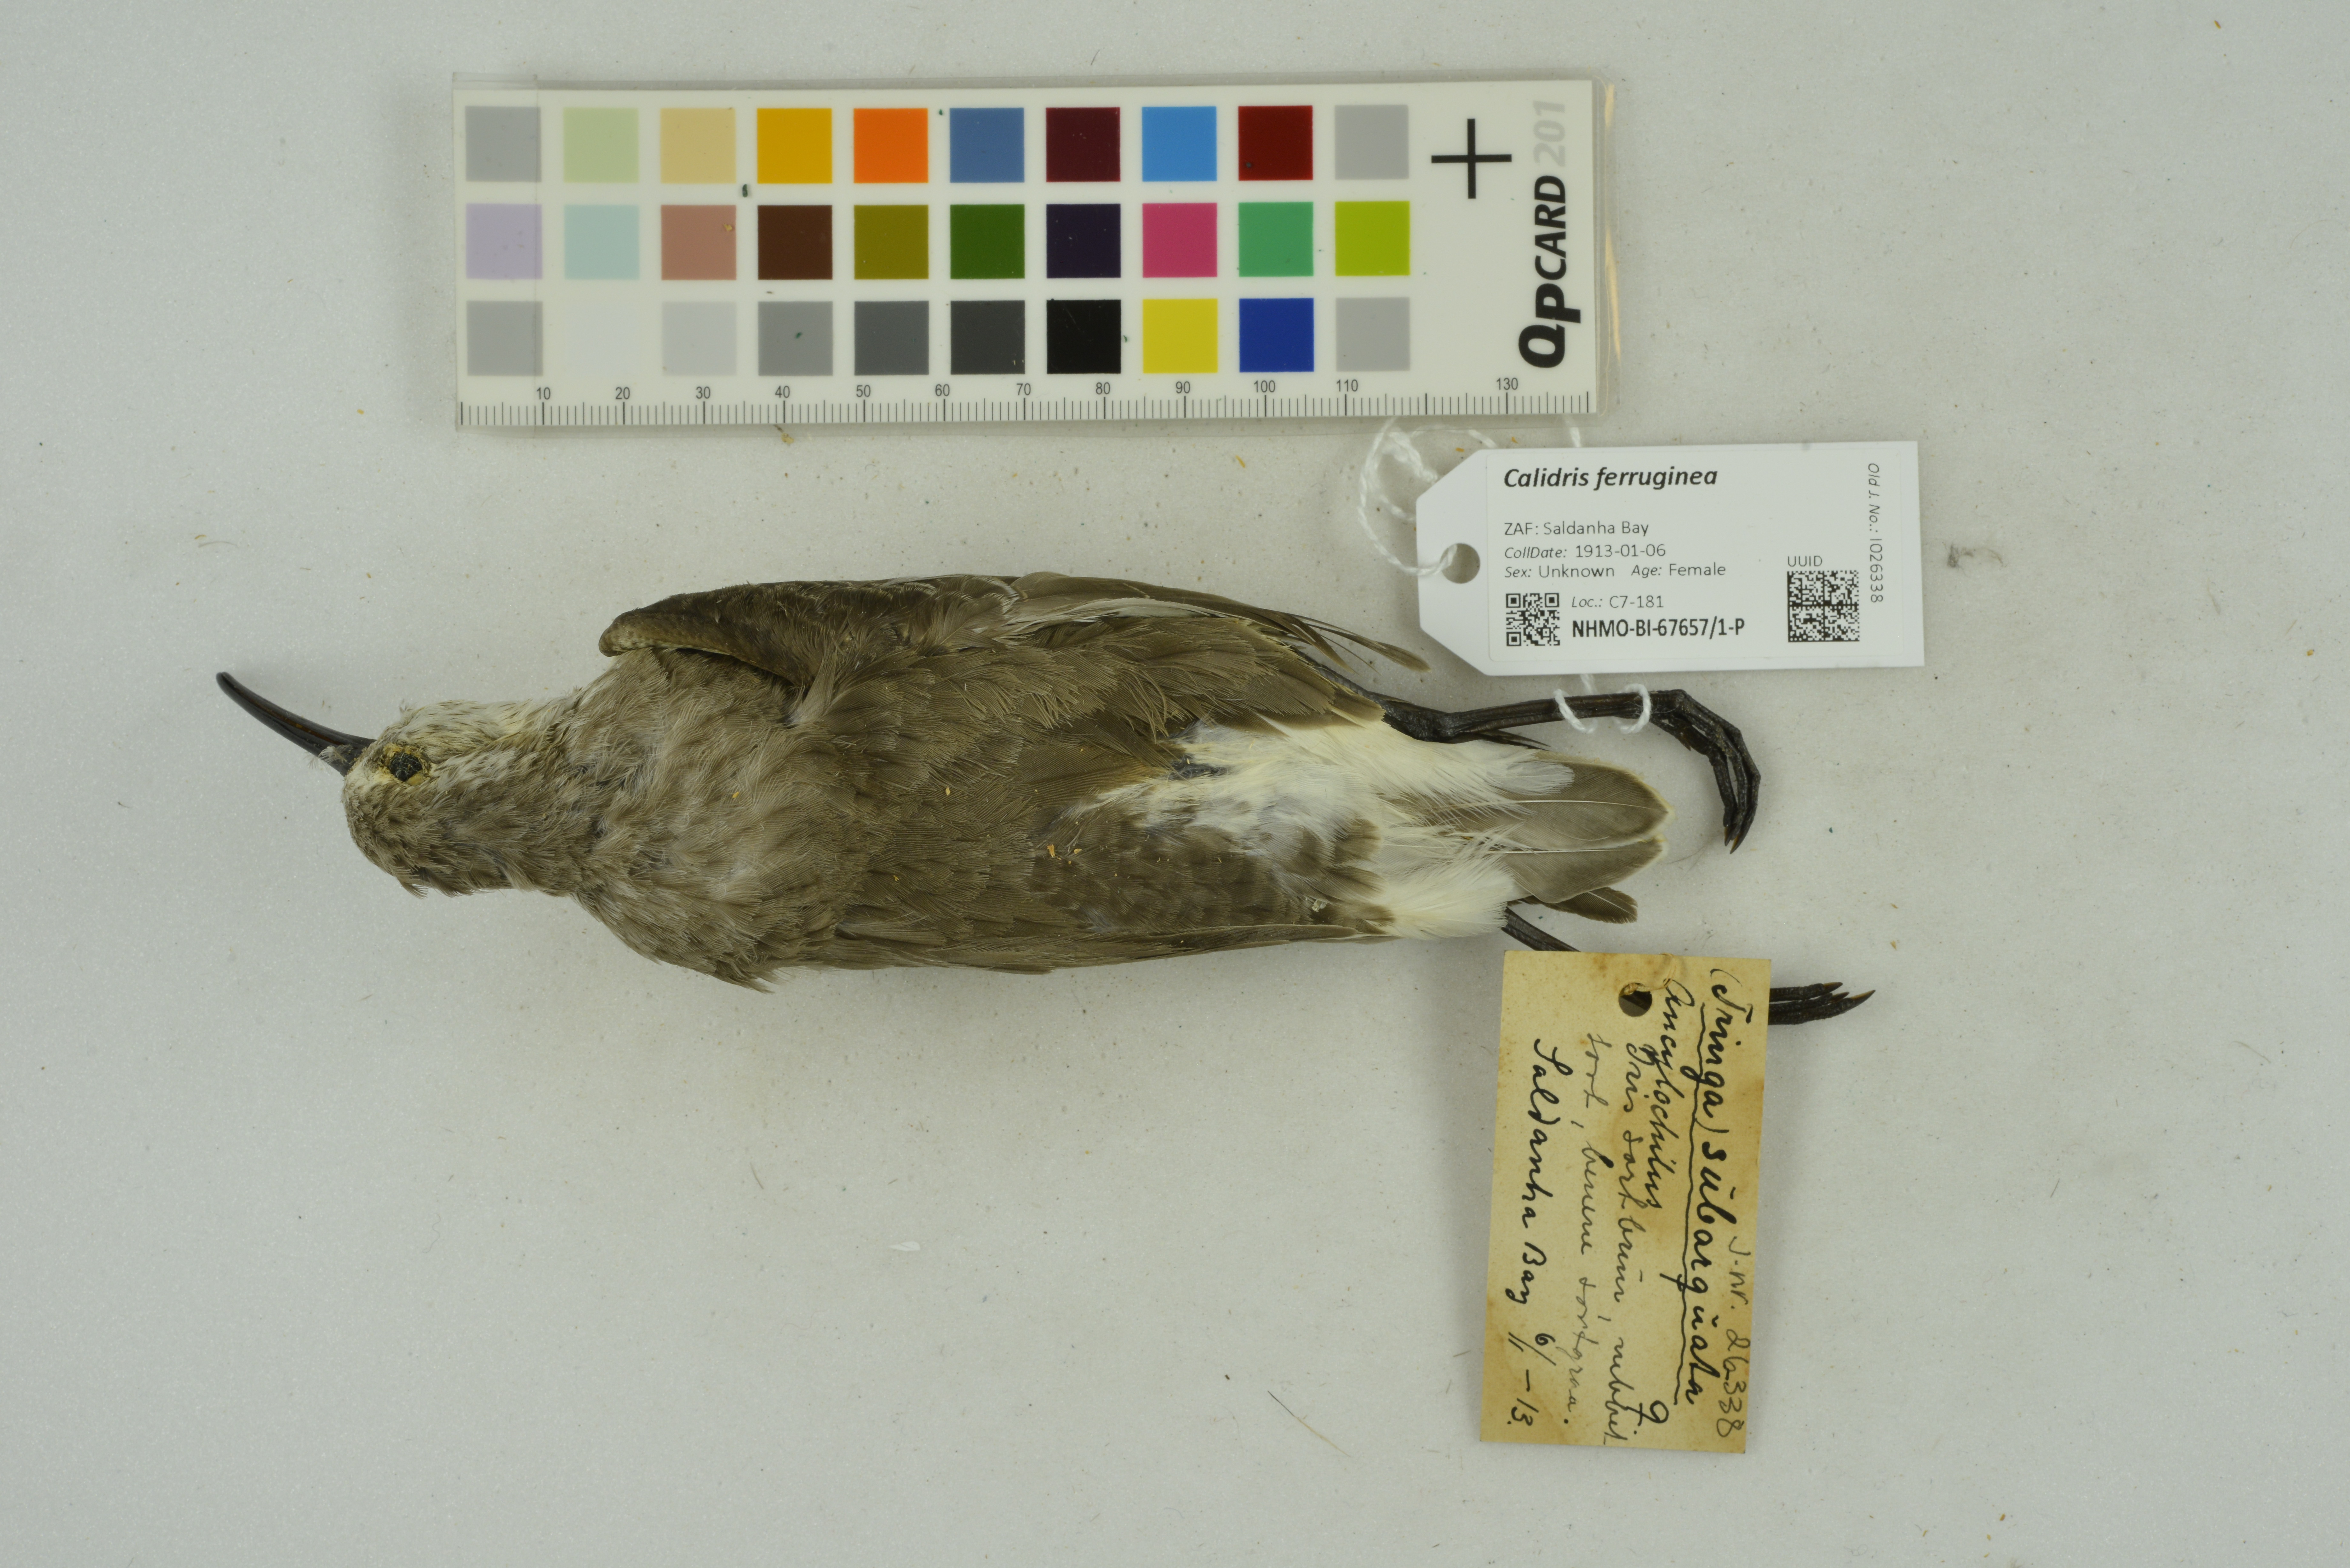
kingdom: Animalia
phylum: Chordata
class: Aves
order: Charadriiformes
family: Scolopacidae
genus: Calidris
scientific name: Calidris ferruginea
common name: Curlew sandpiper
